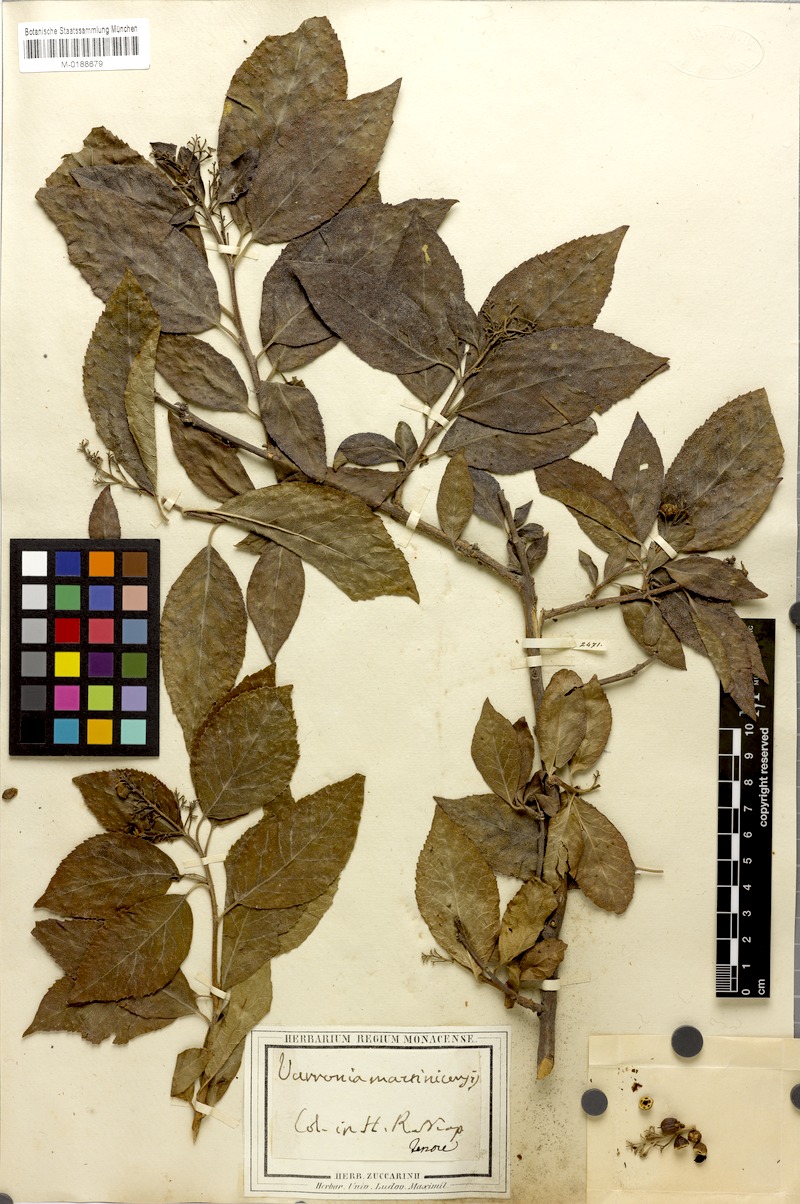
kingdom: Plantae
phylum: Tracheophyta
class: Magnoliopsida
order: Boraginales
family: Cordiaceae
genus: Varronia
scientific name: Varronia martinicensis
